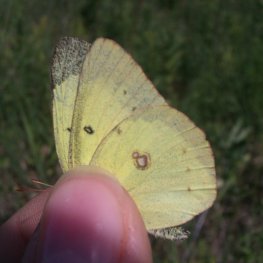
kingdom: Animalia
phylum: Arthropoda
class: Insecta
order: Lepidoptera
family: Pieridae
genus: Colias
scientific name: Colias philodice
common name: Clouded Sulphur
